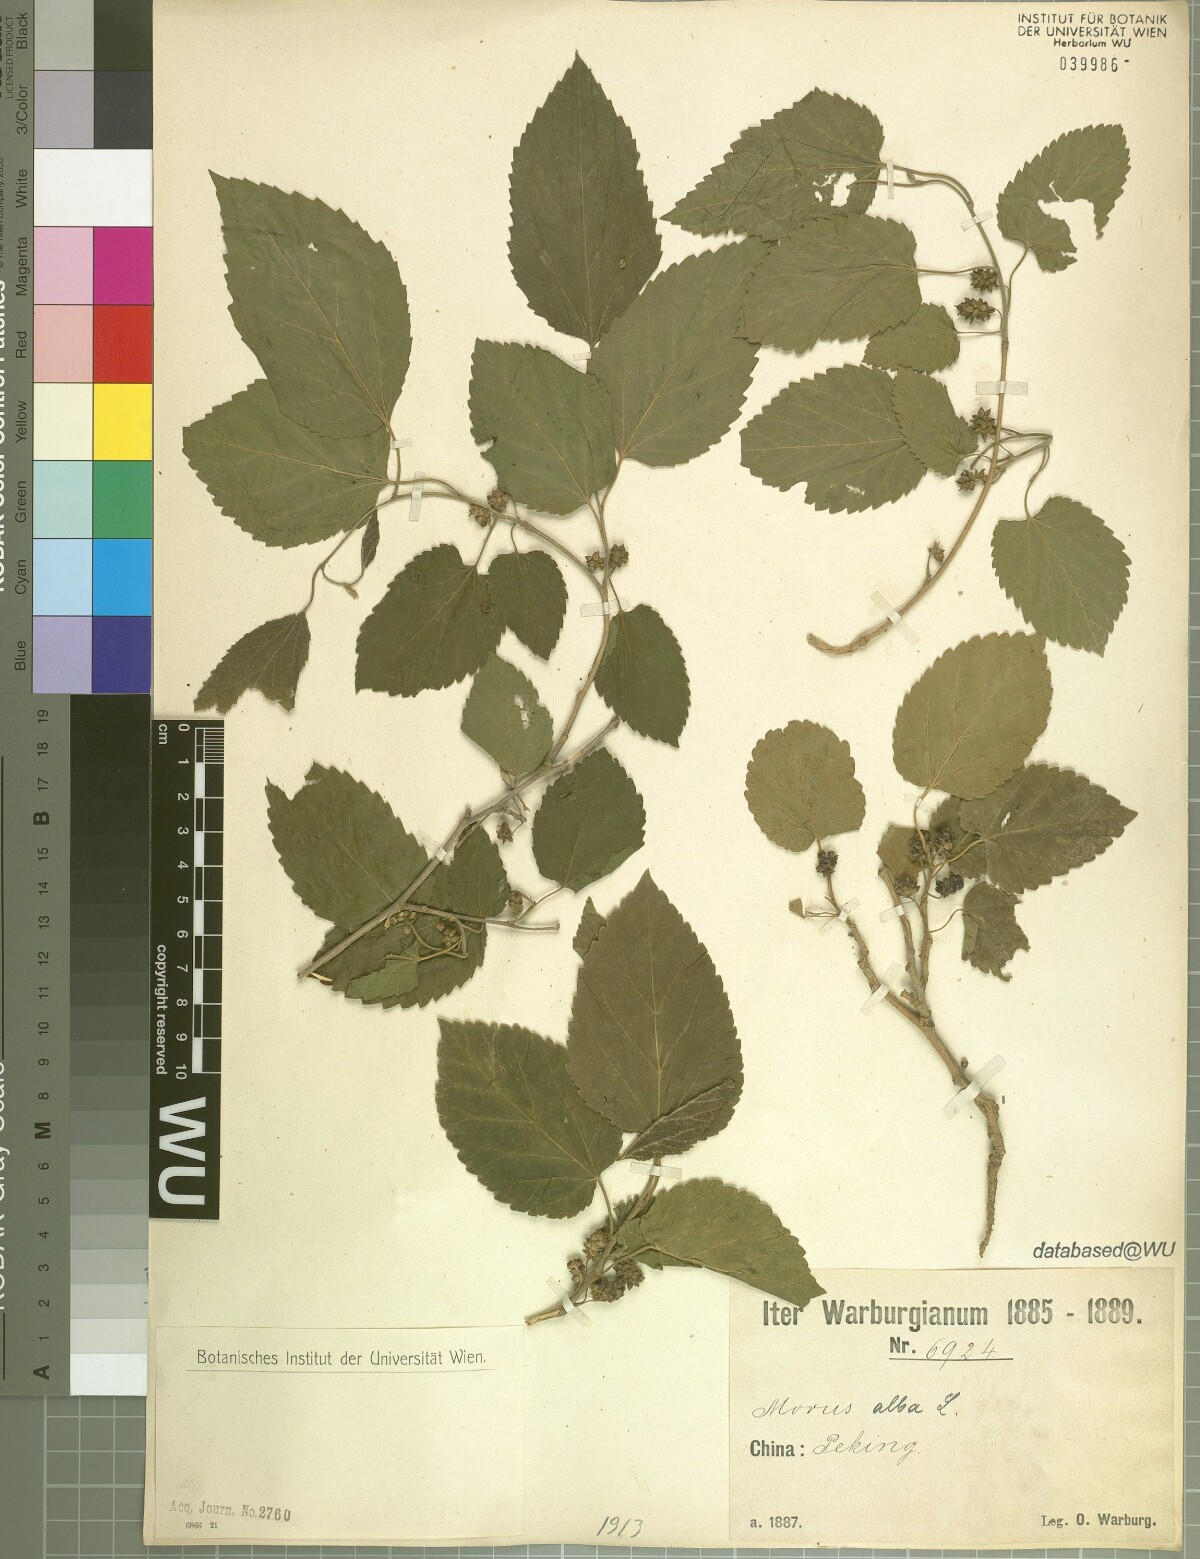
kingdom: Plantae
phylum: Tracheophyta
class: Magnoliopsida
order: Rosales
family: Moraceae
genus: Morus
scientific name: Morus alba
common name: White mulberry
